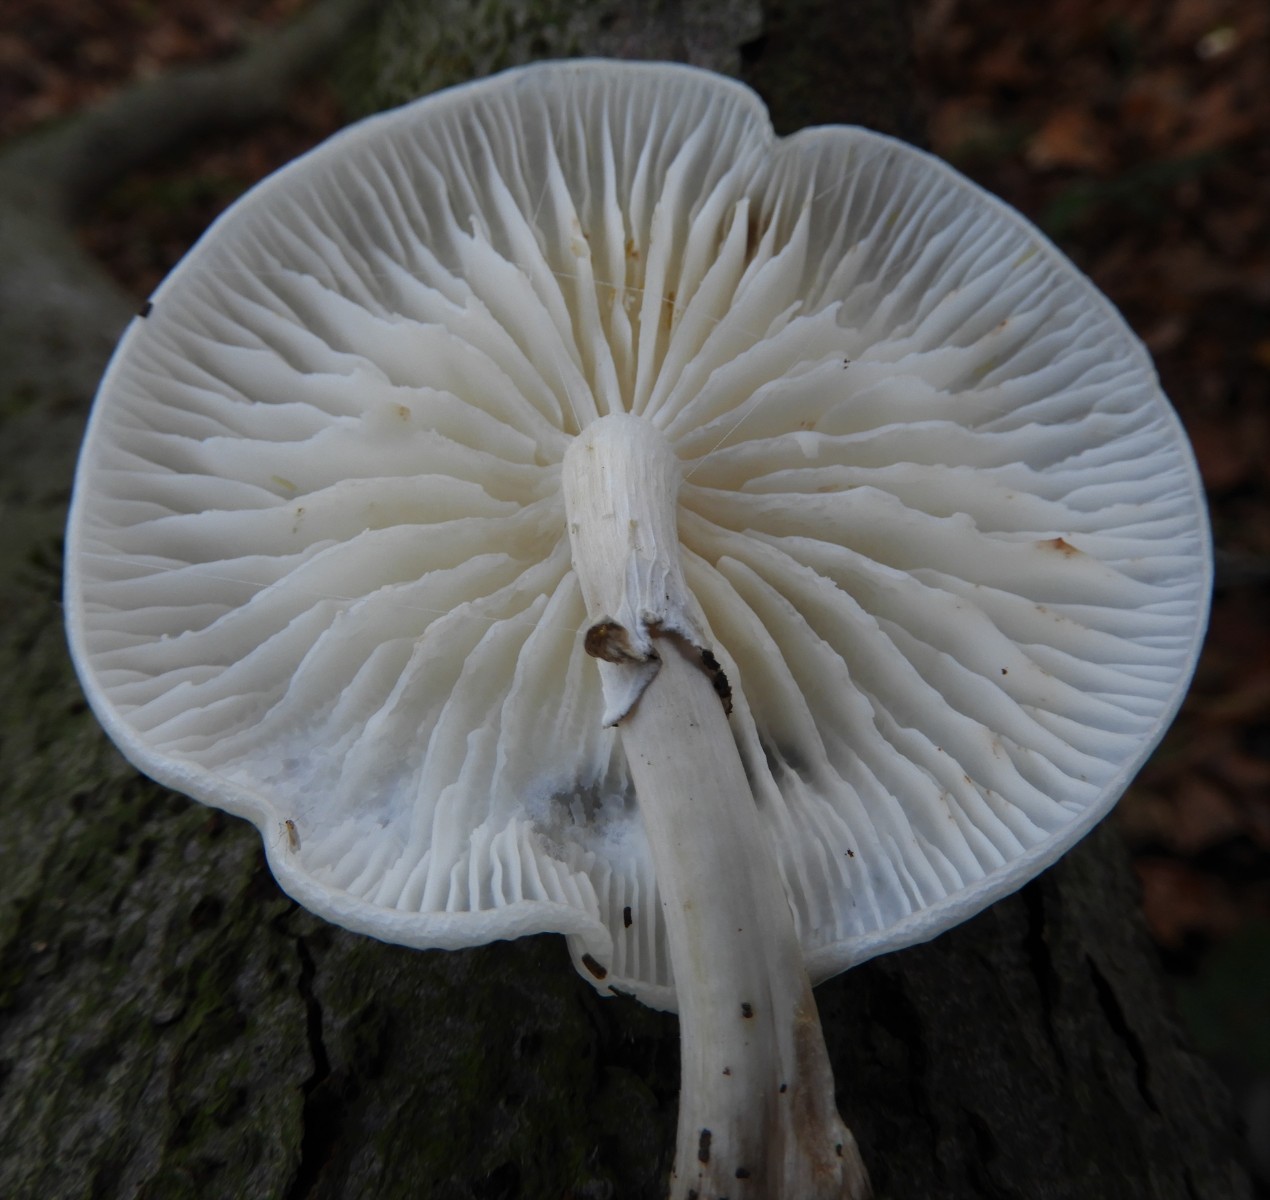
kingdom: Fungi
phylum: Basidiomycota
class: Agaricomycetes
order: Agaricales
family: Physalacriaceae
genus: Mucidula
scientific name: Mucidula mucida
